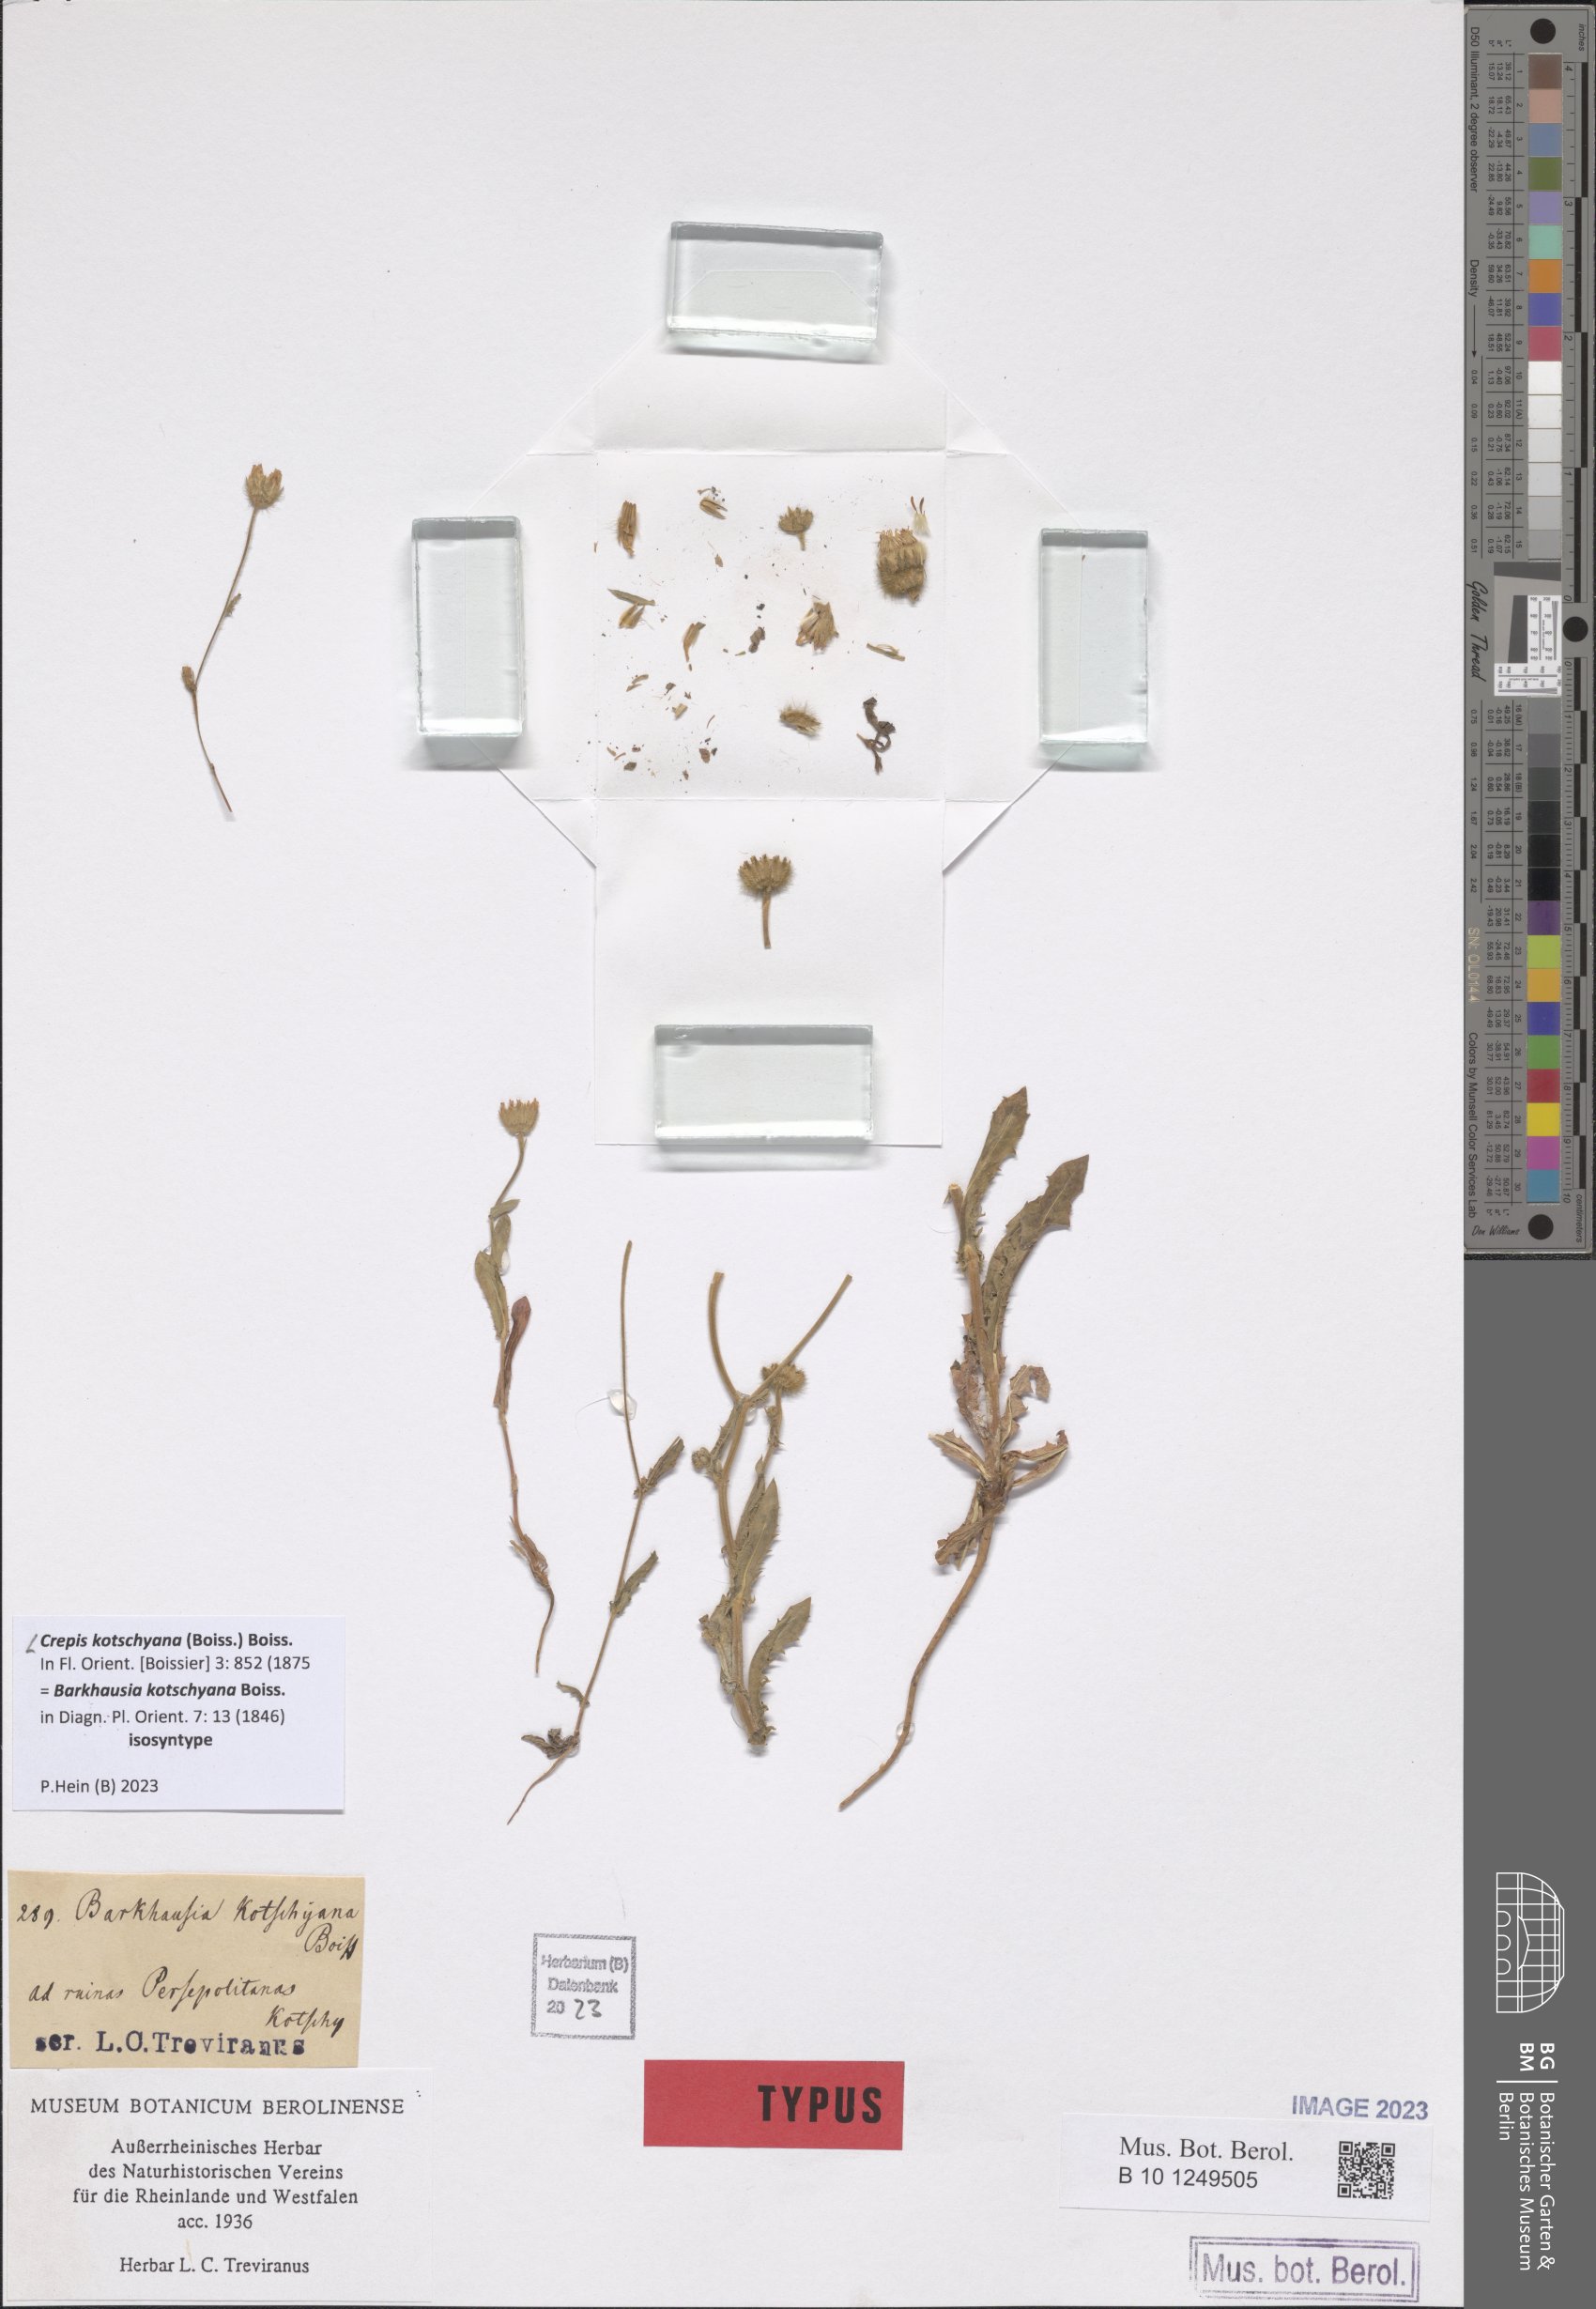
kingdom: Plantae
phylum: Tracheophyta
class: Magnoliopsida
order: Asterales
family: Asteraceae
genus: Crepis
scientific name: Crepis kotschyana
